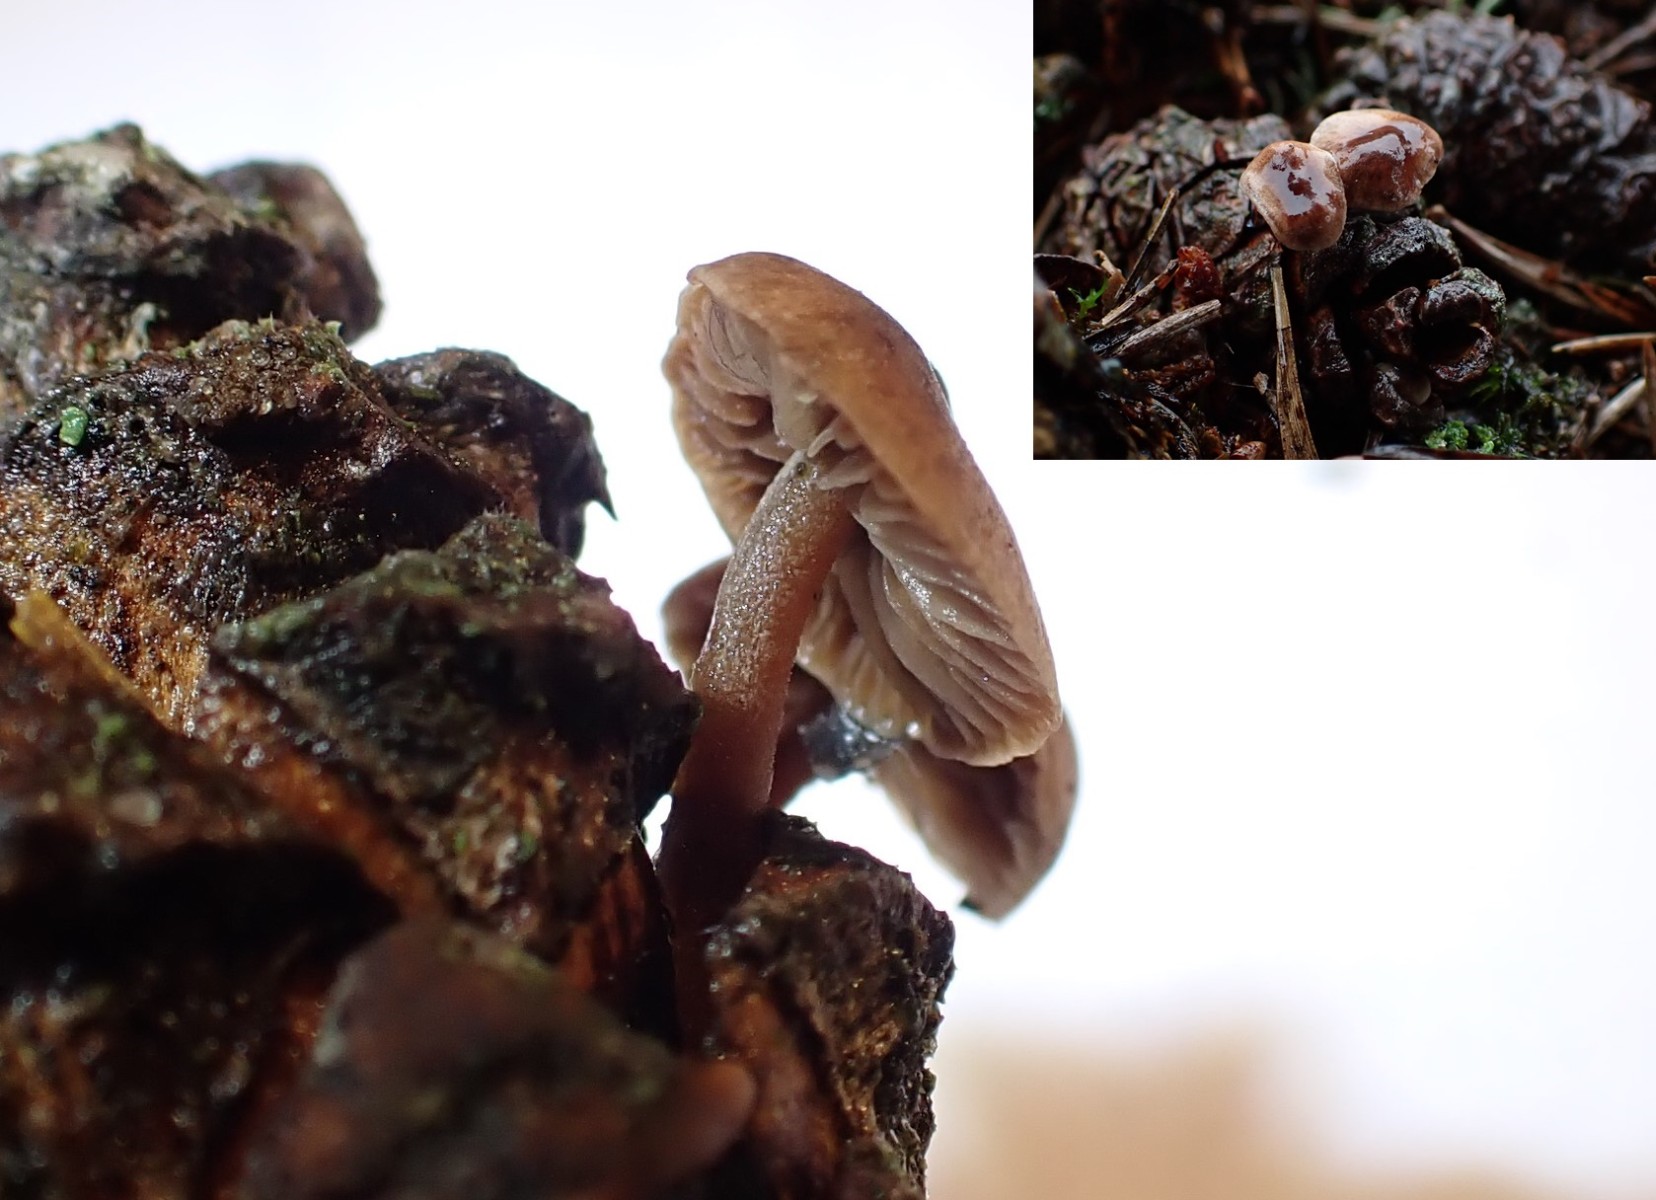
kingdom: Fungi
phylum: Basidiomycota
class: Agaricomycetes
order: Agaricales
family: Marasmiaceae
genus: Baeospora
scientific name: Baeospora myosura
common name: koglebruskhat
